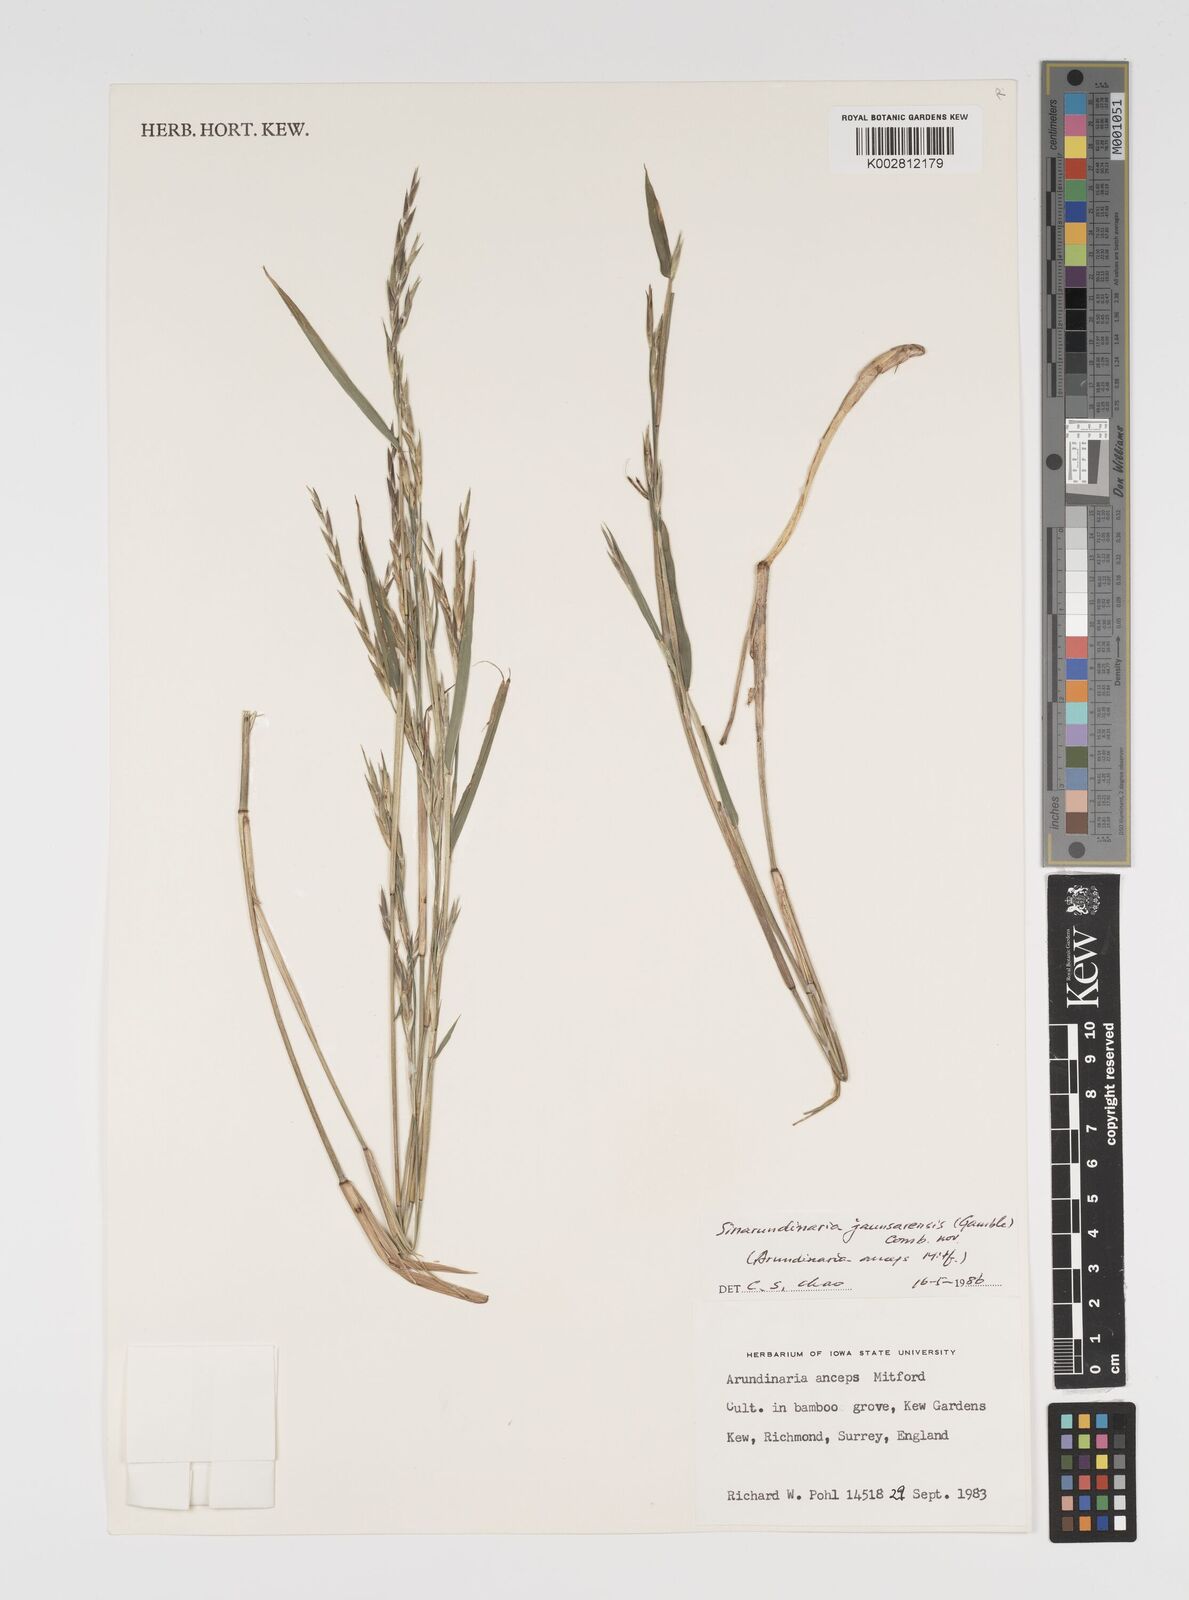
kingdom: Plantae
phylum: Tracheophyta
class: Liliopsida
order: Poales
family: Poaceae
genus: Yushania
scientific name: Yushania anceps
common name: Indian fountain-bamboo
